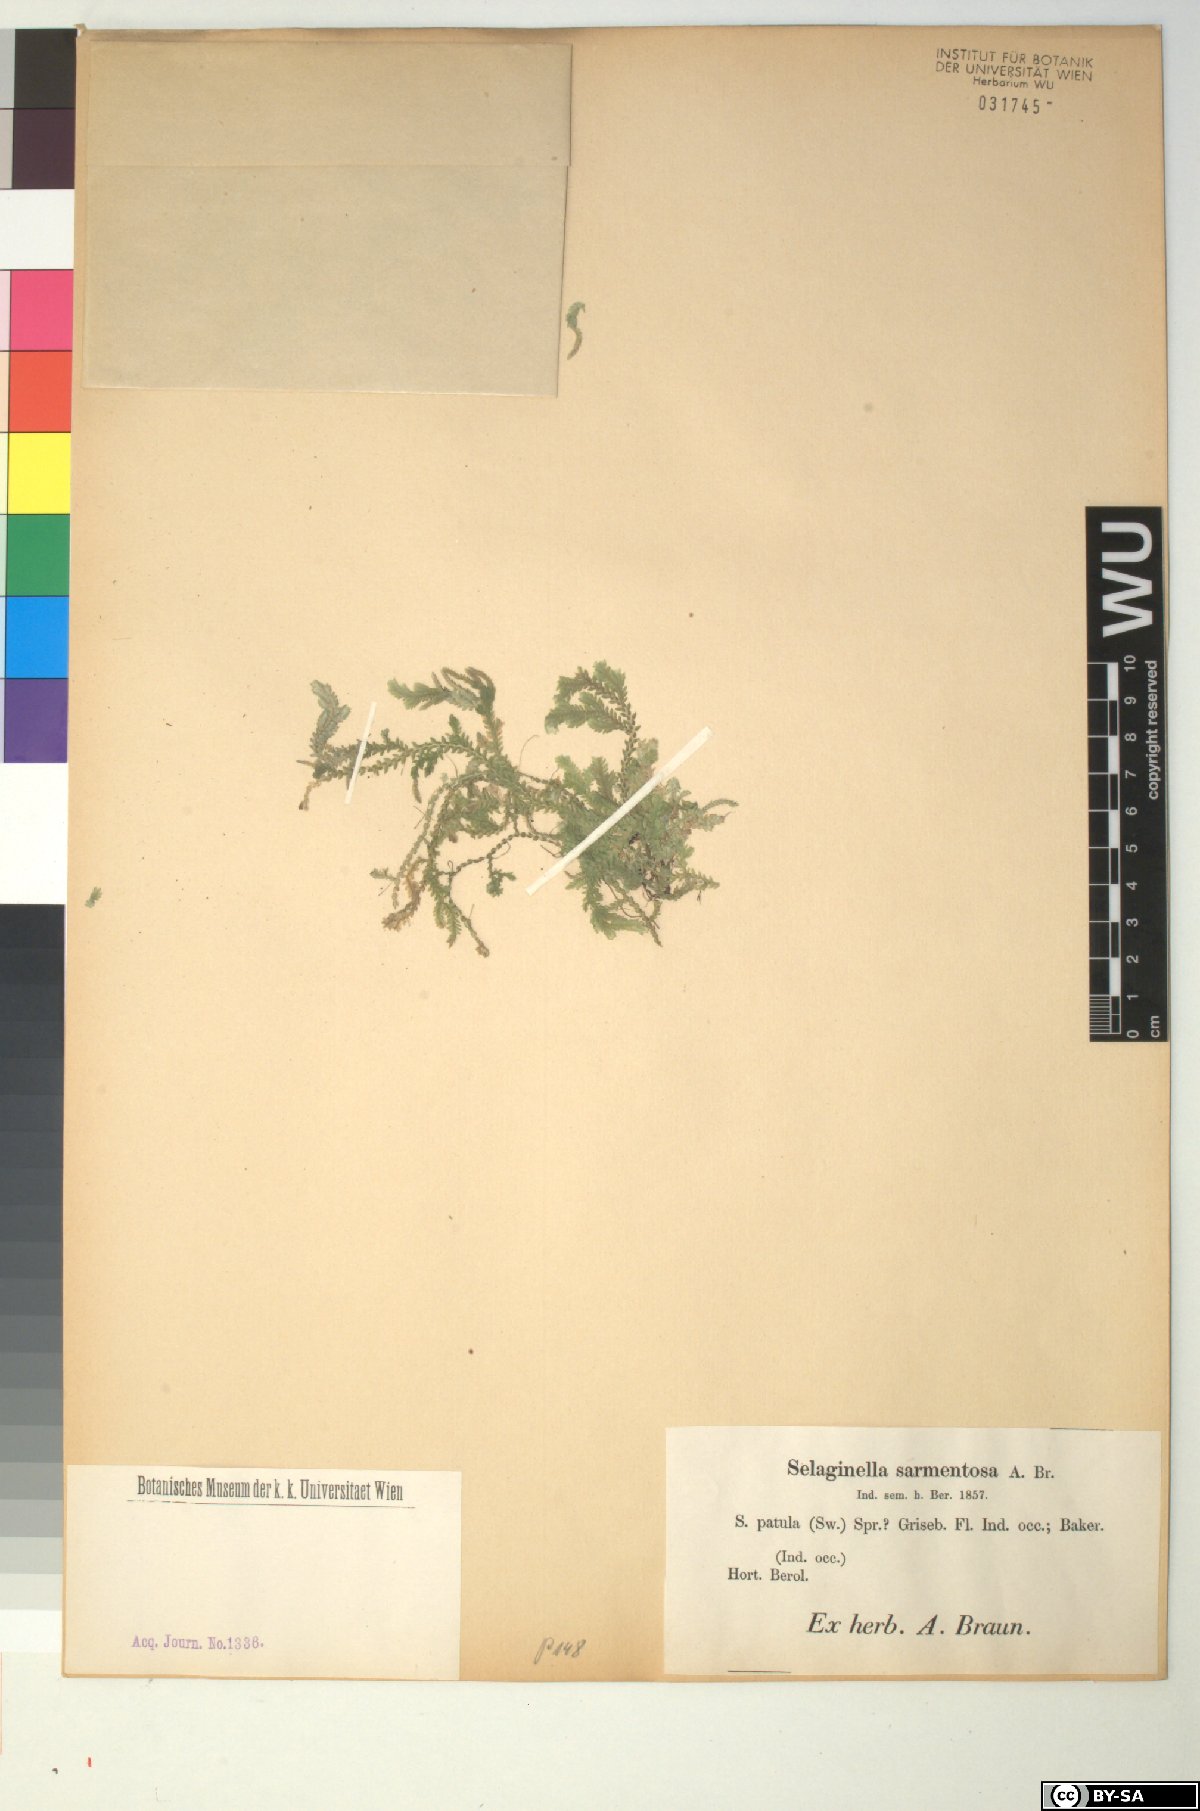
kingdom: Plantae
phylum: Tracheophyta
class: Lycopodiopsida
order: Selaginellales
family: Selaginellaceae
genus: Selaginella
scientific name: Selaginella heterodonta
